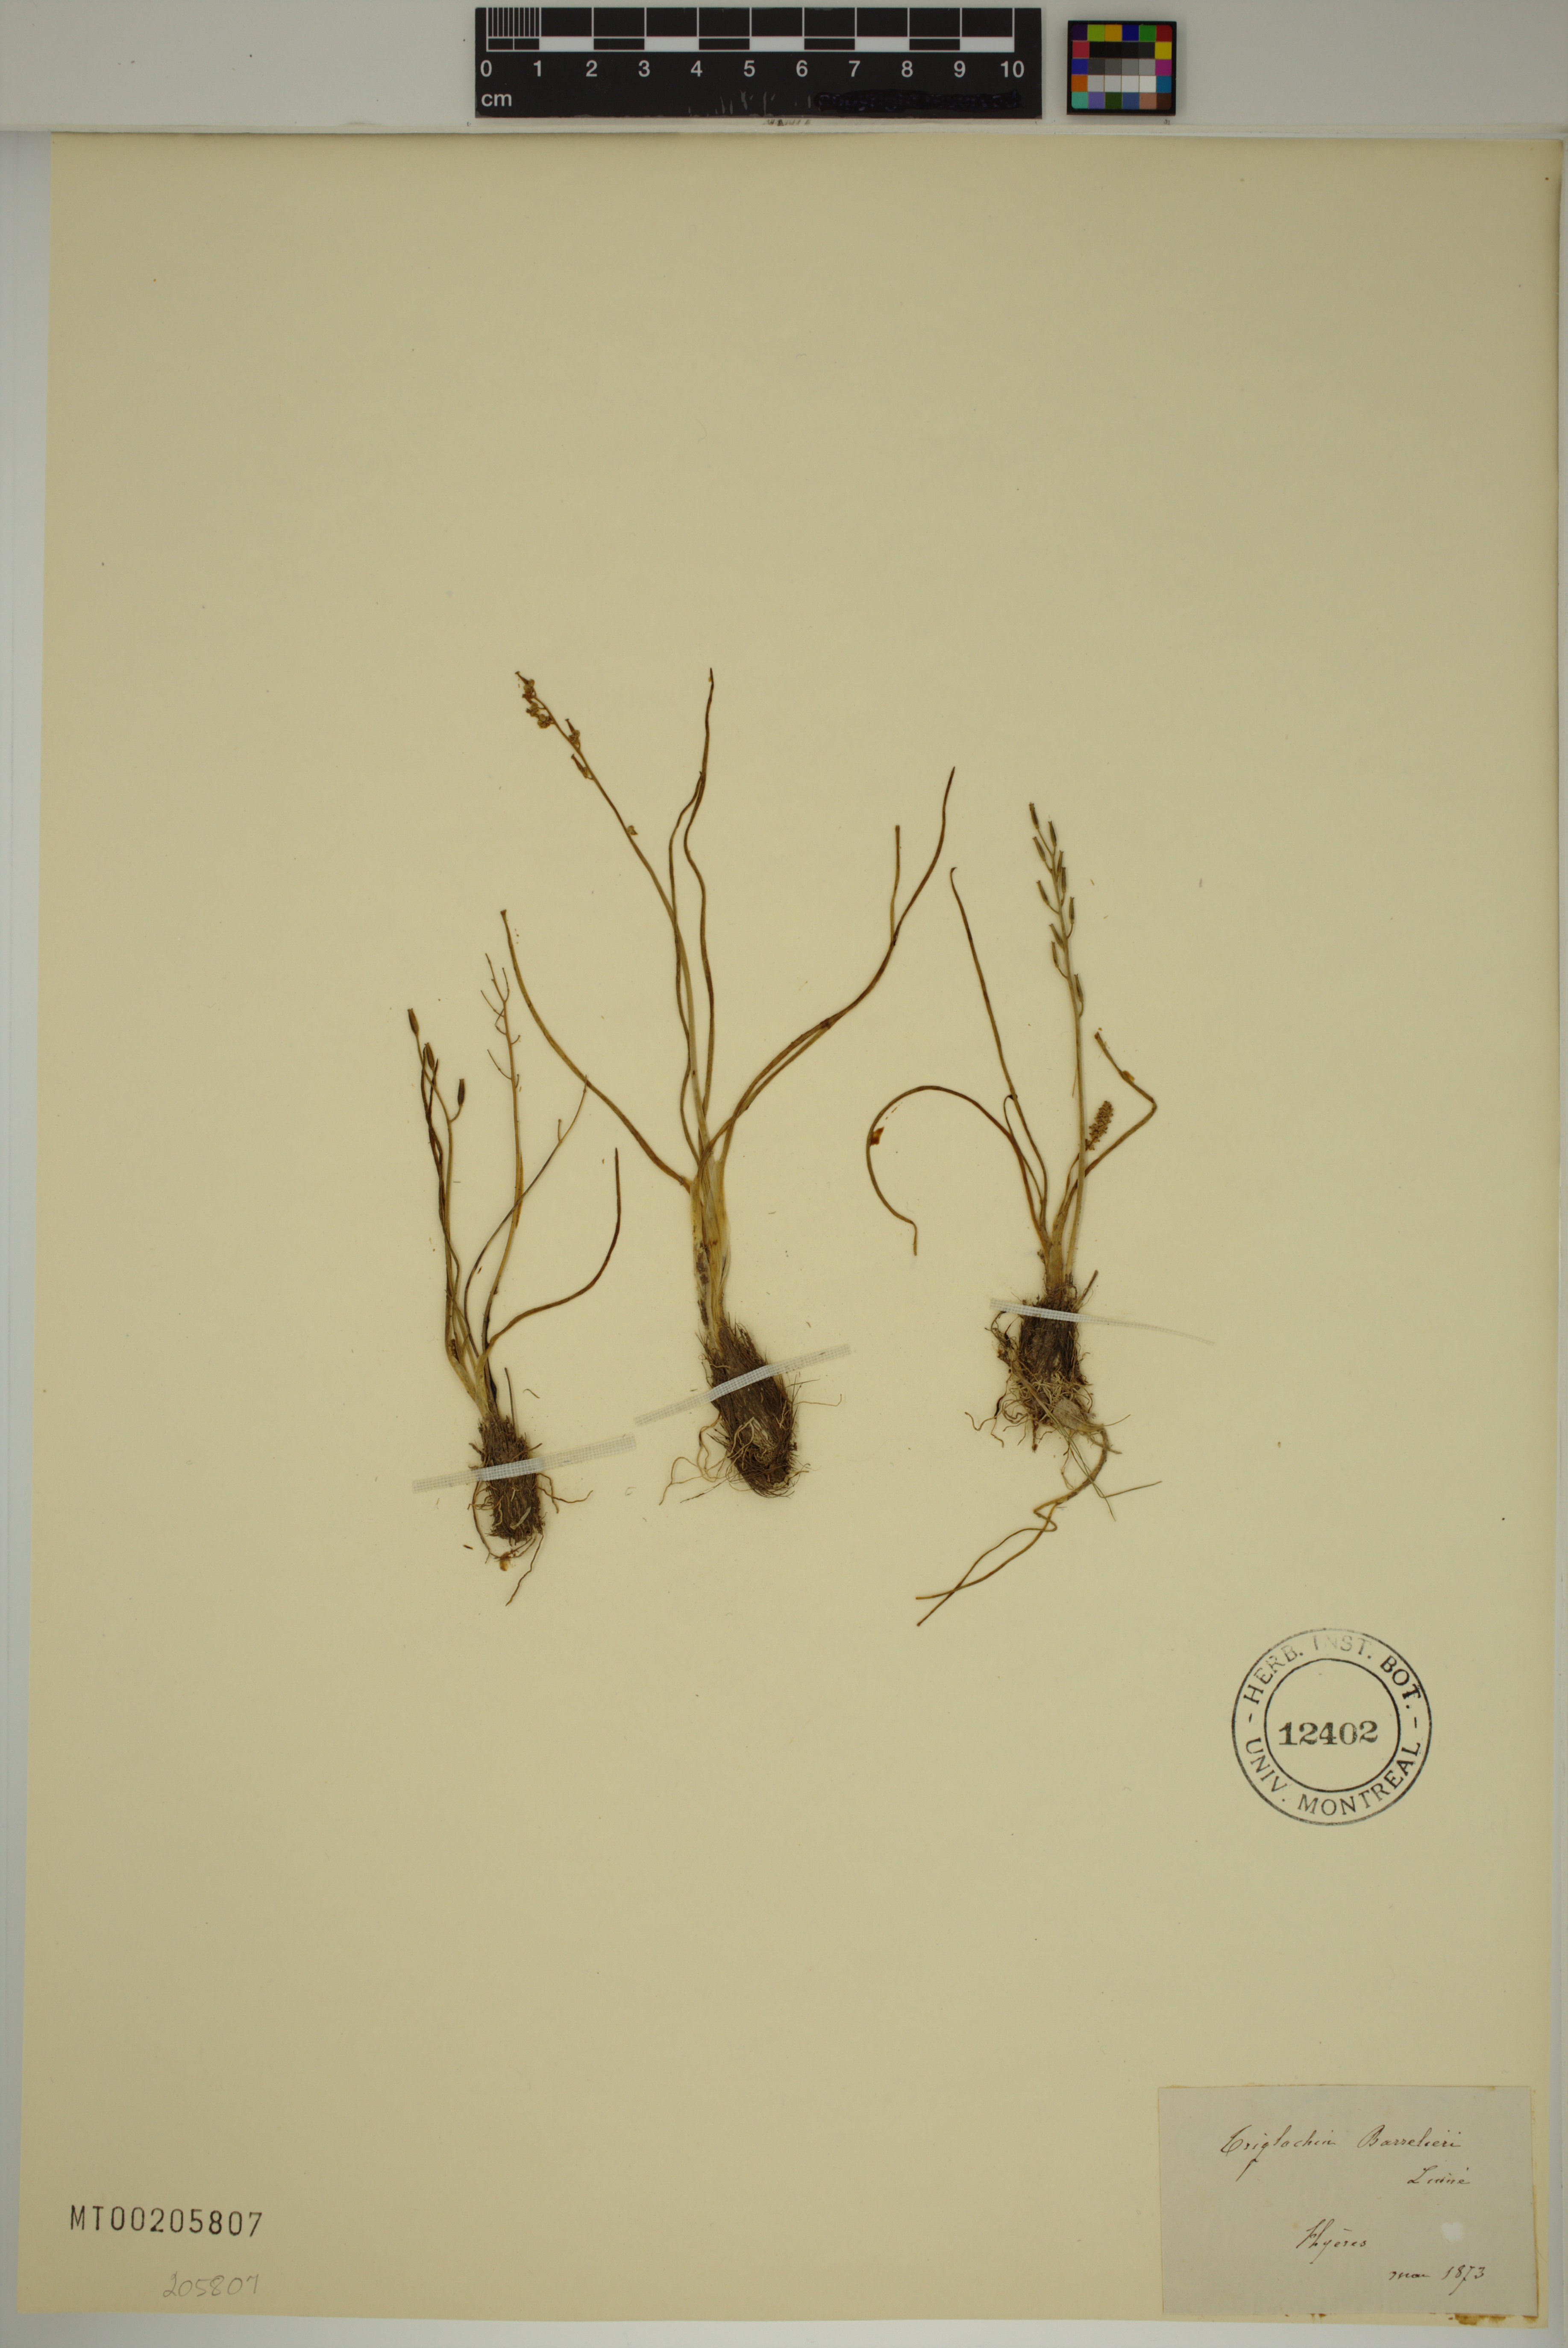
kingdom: Plantae
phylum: Tracheophyta
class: Liliopsida
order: Alismatales
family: Juncaginaceae
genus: Triglochin
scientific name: Triglochin barrelieri
